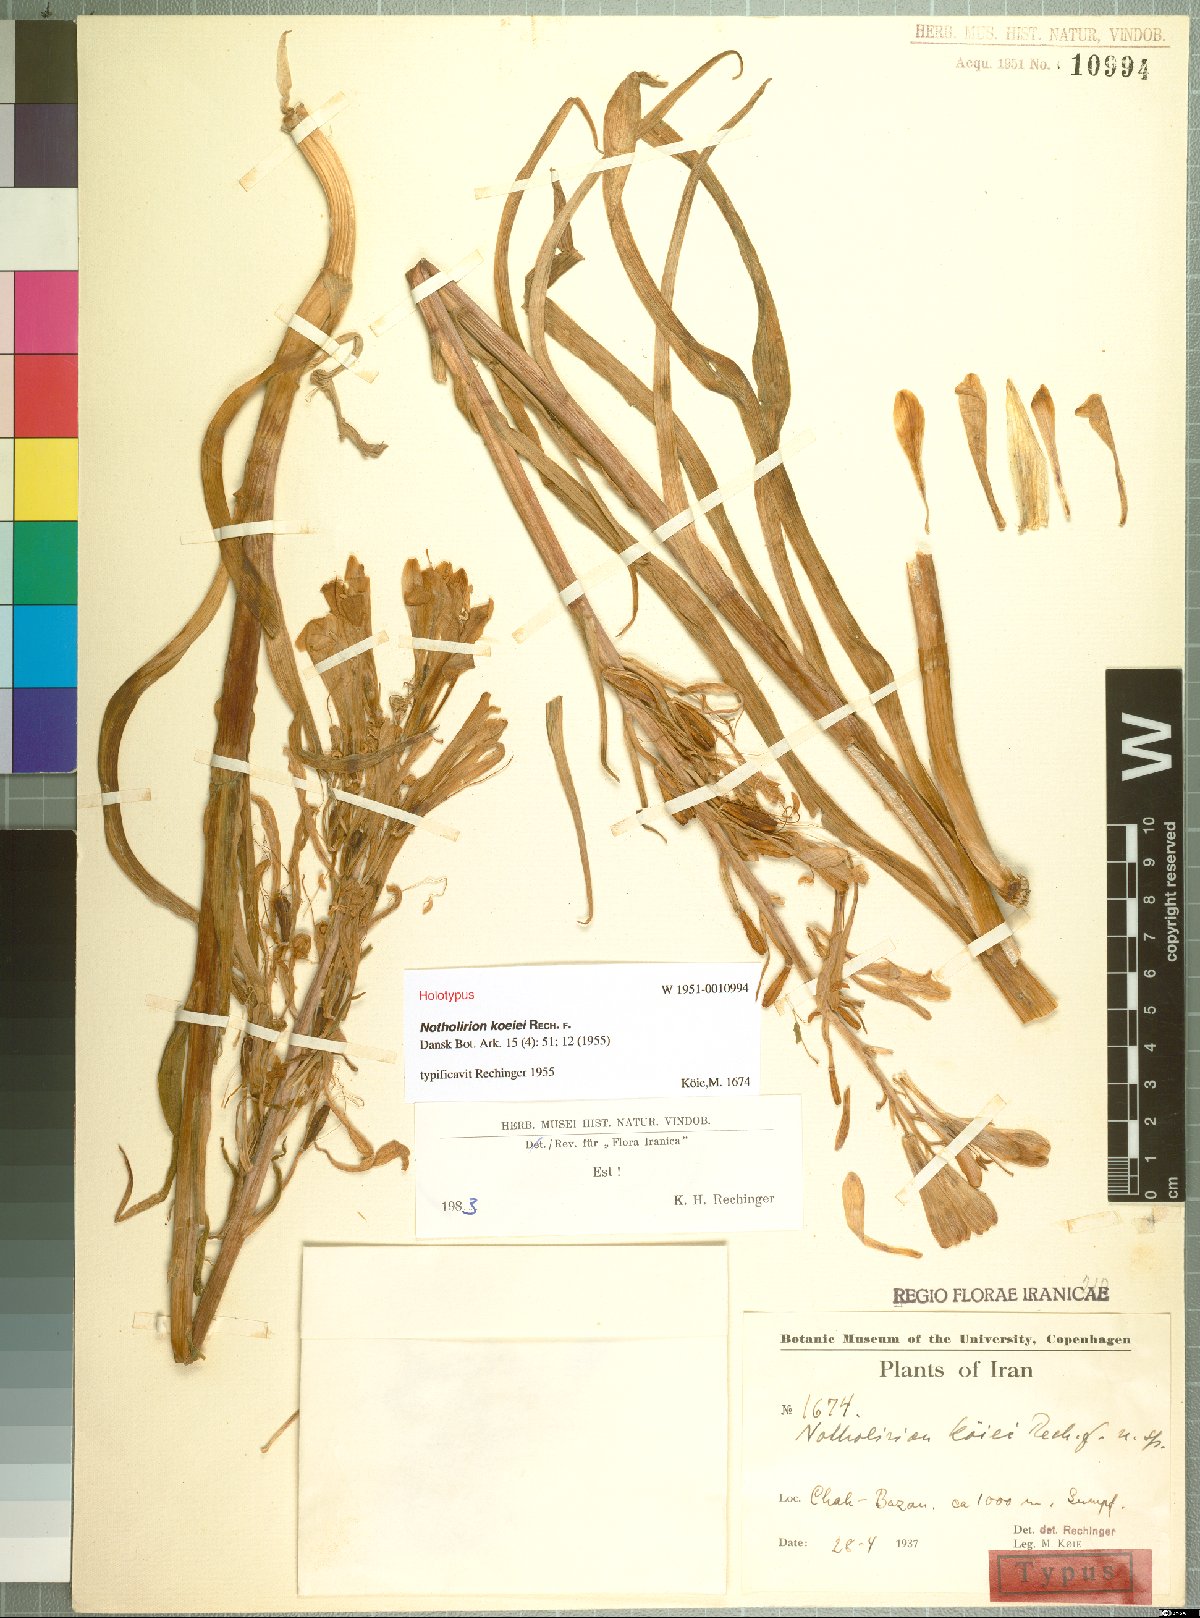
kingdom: Plantae
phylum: Tracheophyta
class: Liliopsida
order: Liliales
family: Liliaceae
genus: Notholirion
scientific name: Notholirion koeiei
